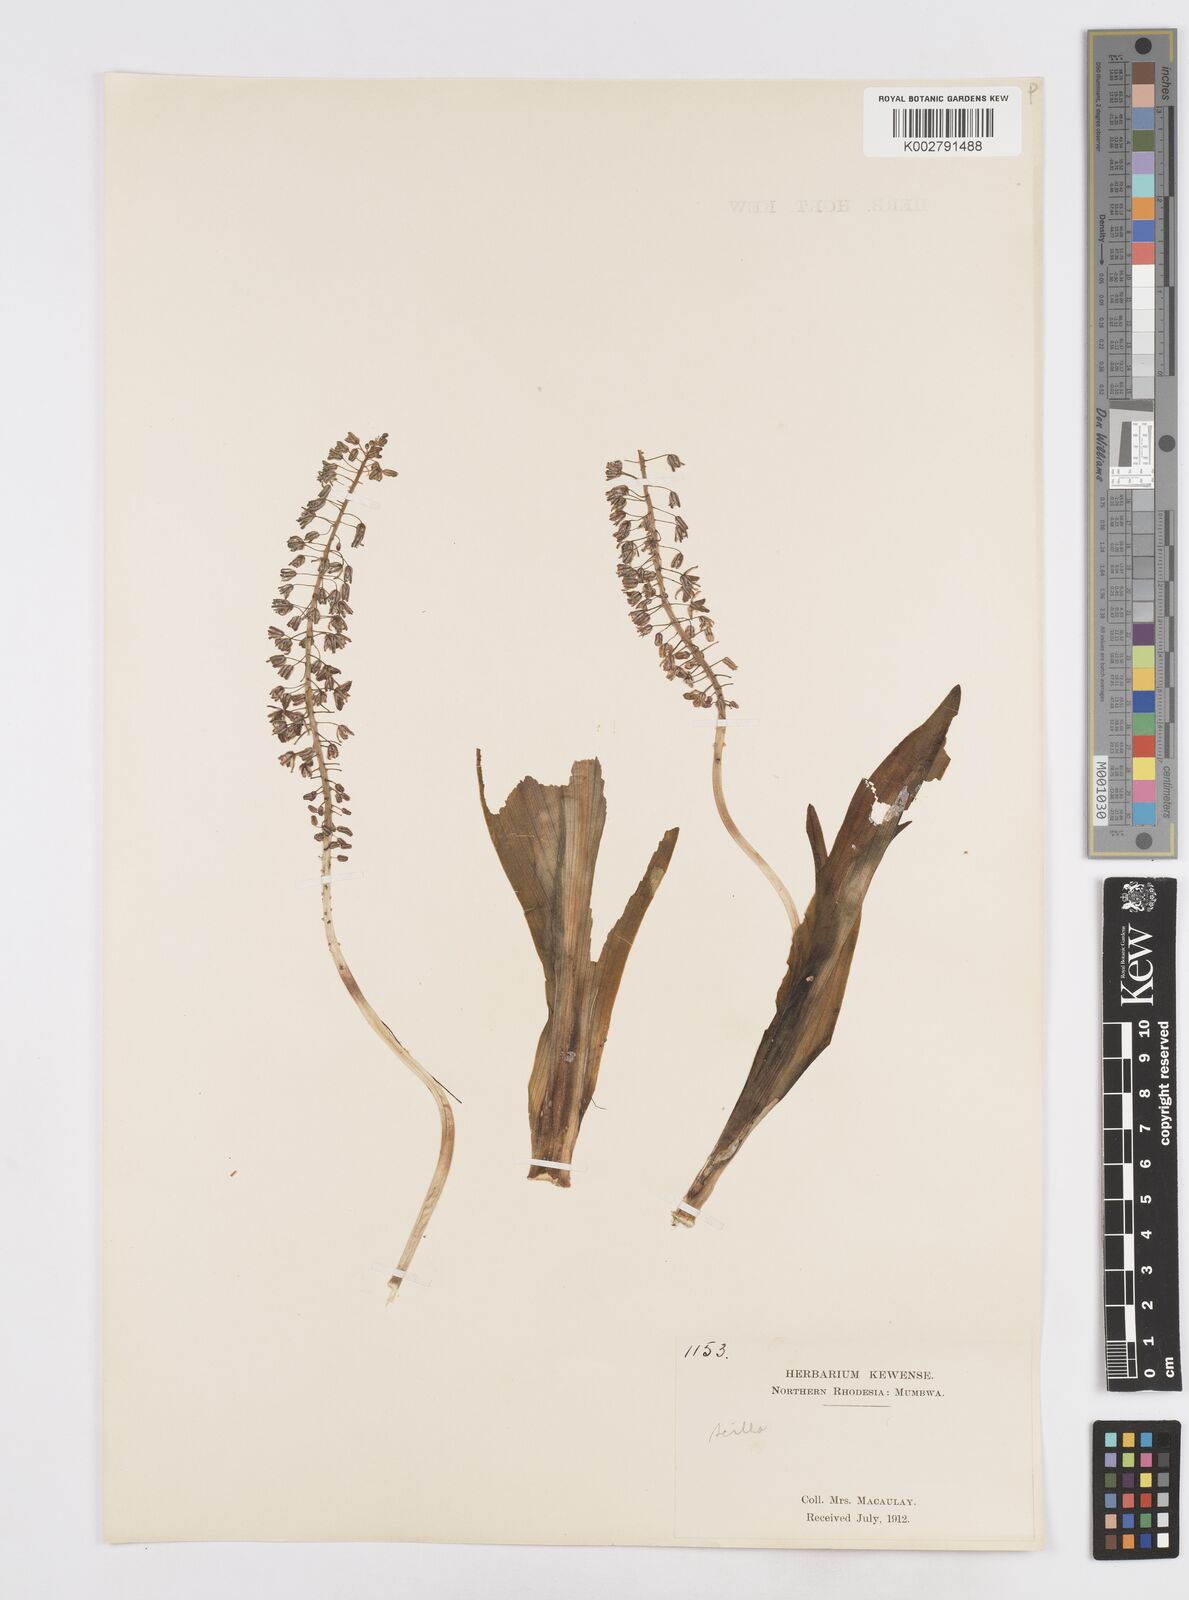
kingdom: Plantae
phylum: Tracheophyta
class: Liliopsida
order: Asparagales
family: Asparagaceae
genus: Scilla
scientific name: Scilla
